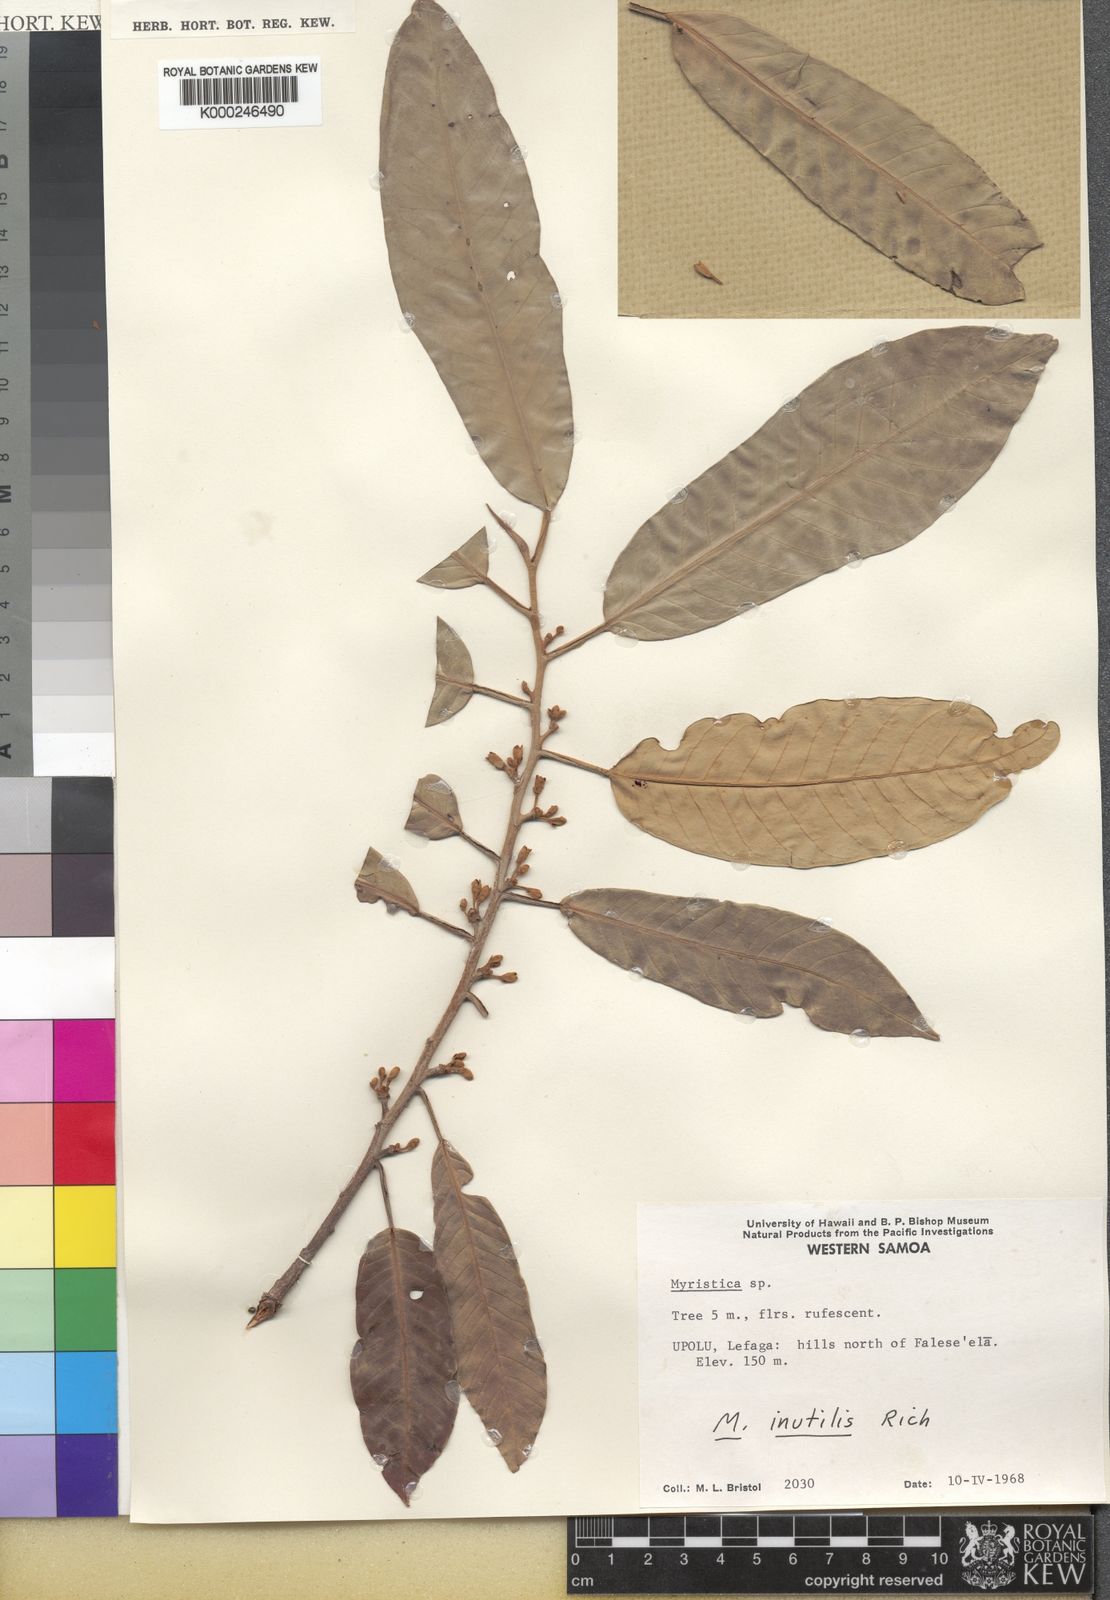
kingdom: Plantae
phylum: Tracheophyta
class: Magnoliopsida
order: Magnoliales
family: Myristicaceae
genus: Myristica
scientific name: Myristica inutilis
